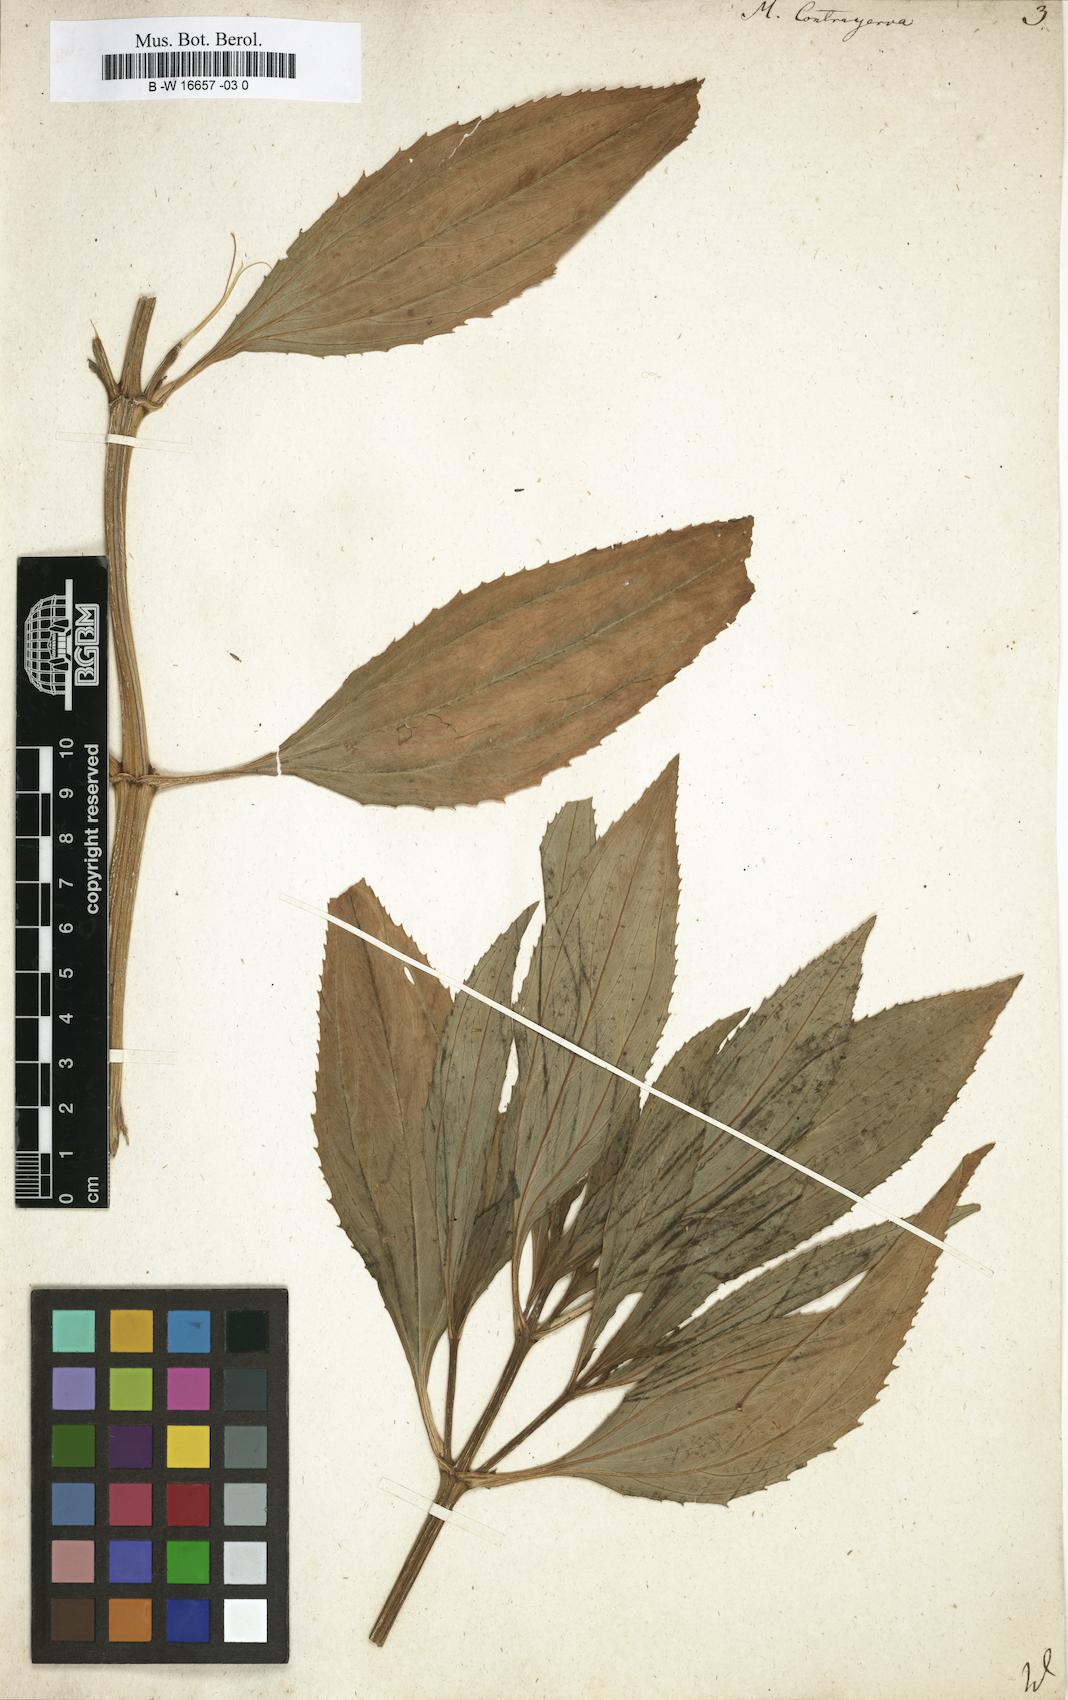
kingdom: Plantae
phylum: Tracheophyta
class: Magnoliopsida
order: Asterales
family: Asteraceae
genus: Flaveria
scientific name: Flaveria bidentis
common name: Coastal plain yellowtops
